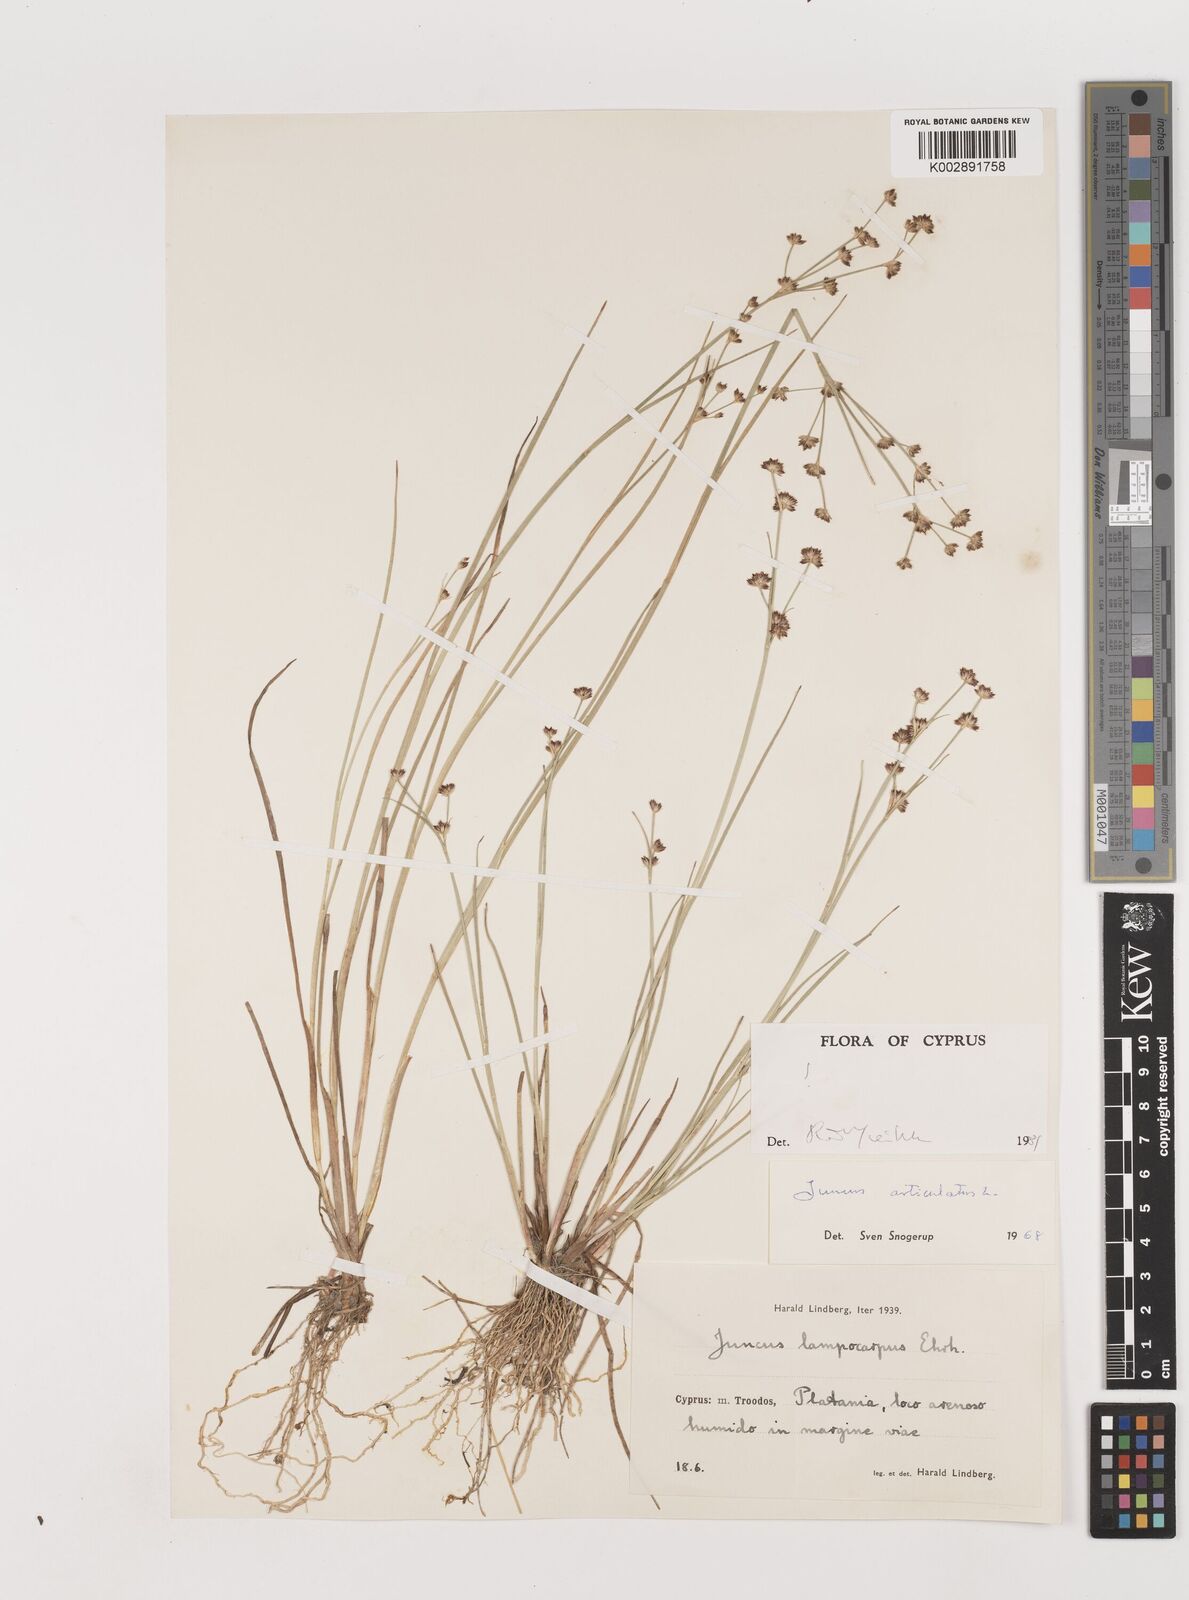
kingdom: Plantae
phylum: Tracheophyta
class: Liliopsida
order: Poales
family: Juncaceae
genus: Juncus
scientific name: Juncus articulatus
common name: Jointed rush
